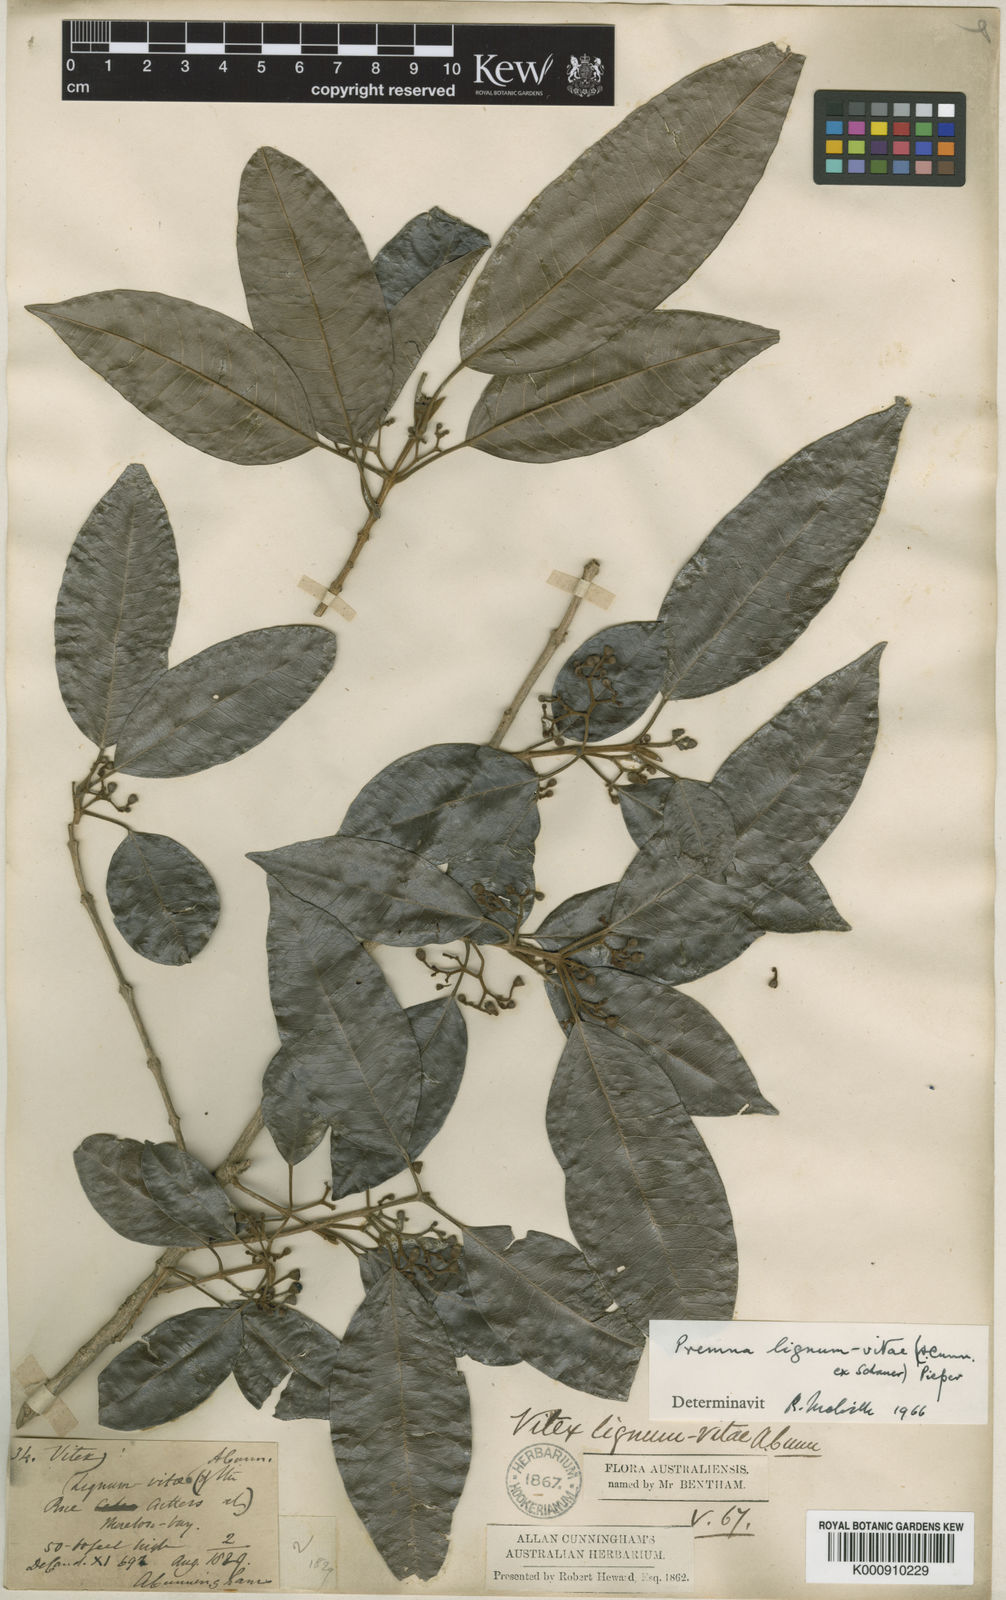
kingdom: Plantae
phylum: Tracheophyta
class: Magnoliopsida
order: Lamiales
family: Lamiaceae
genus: Vitex
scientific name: Vitex lignum-vitae
